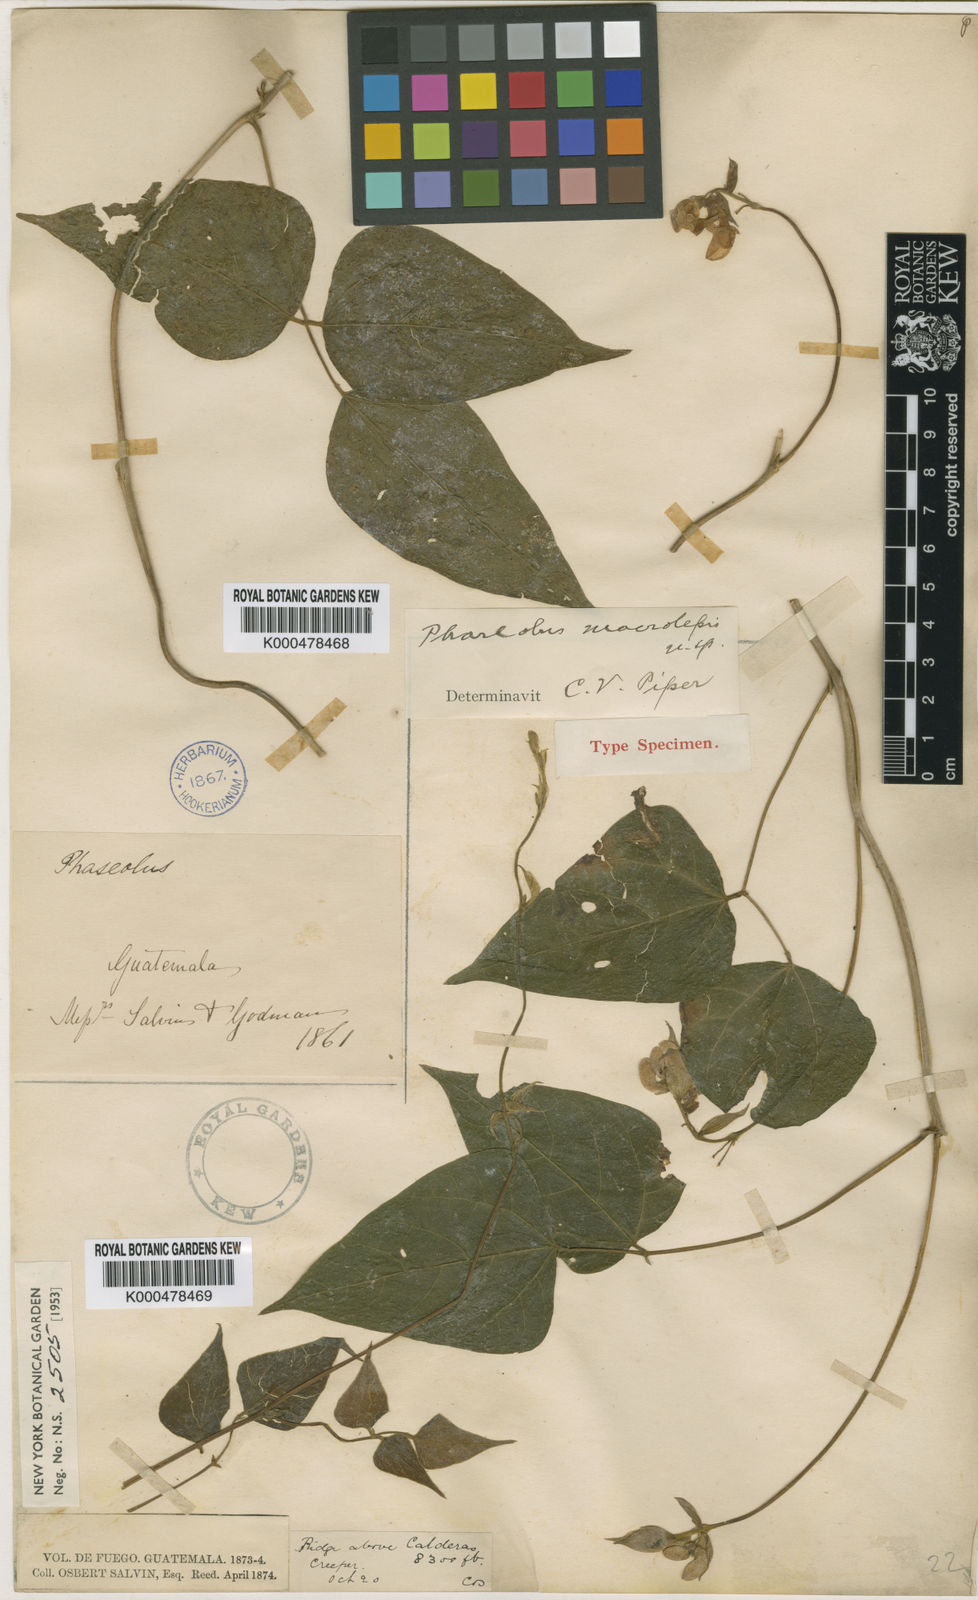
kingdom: Plantae
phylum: Tracheophyta
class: Magnoliopsida
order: Fabales
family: Fabaceae
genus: Phaseolus
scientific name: Phaseolus macrolepis
